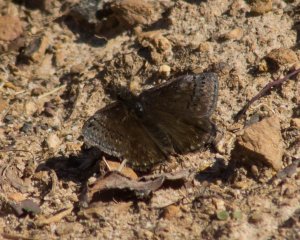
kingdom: Animalia
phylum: Arthropoda
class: Insecta
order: Lepidoptera
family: Hesperiidae
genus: Erynnis
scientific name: Erynnis brizo
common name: Sleepy Duskywing
